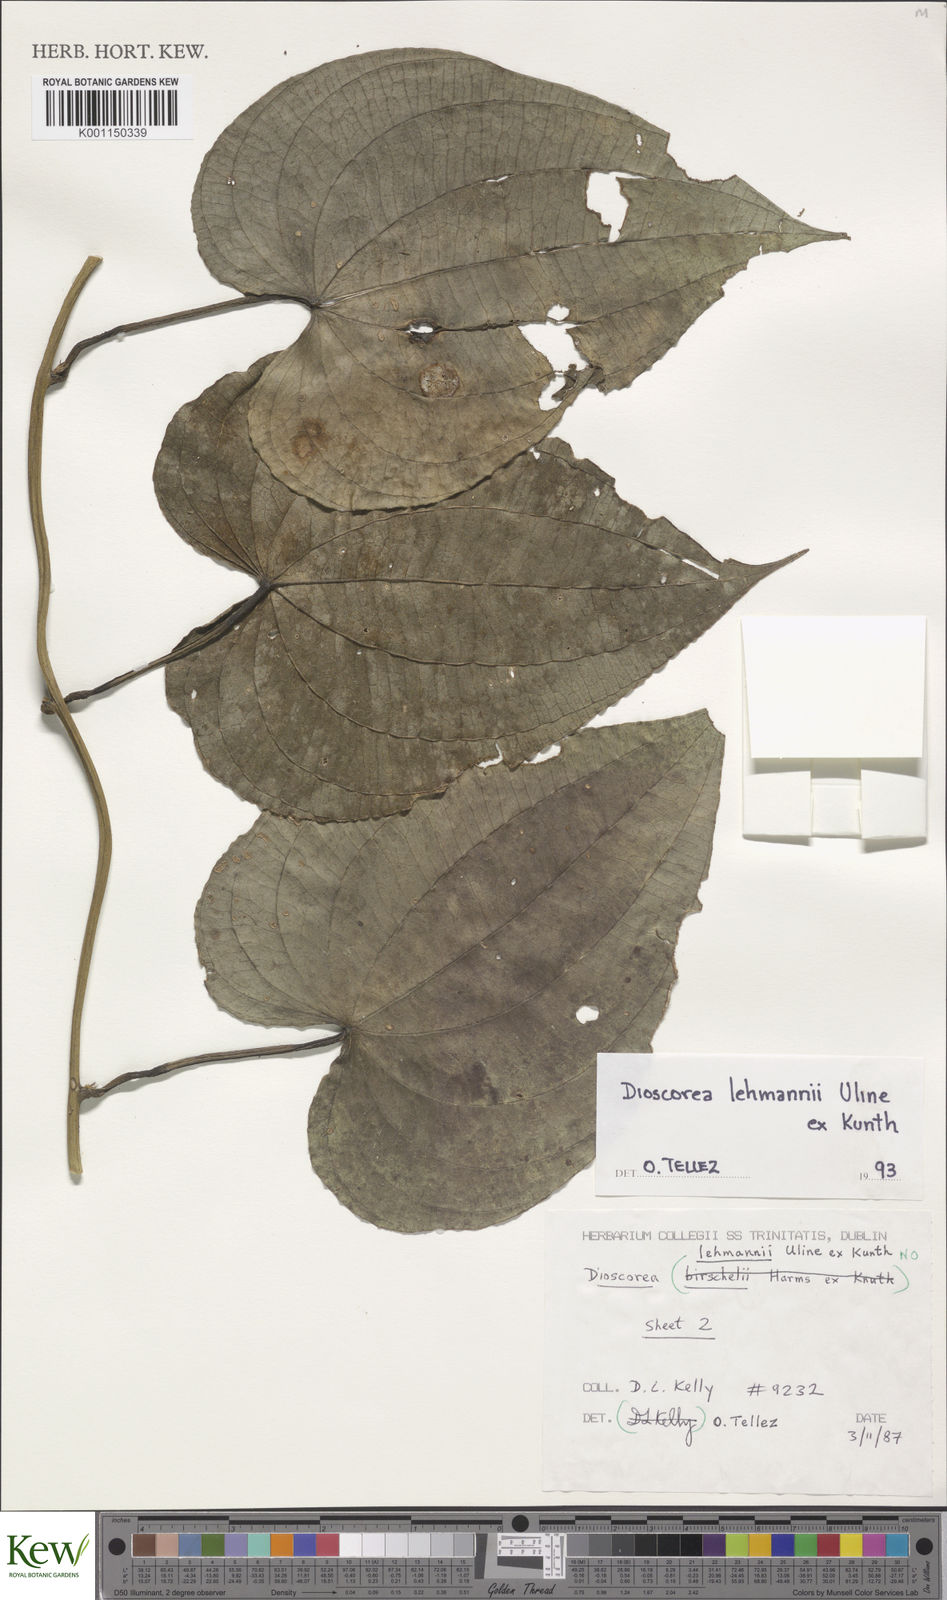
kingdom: Plantae
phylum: Tracheophyta
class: Liliopsida
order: Dioscoreales
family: Dioscoreaceae
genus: Dioscorea
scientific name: Dioscorea lehmannii
